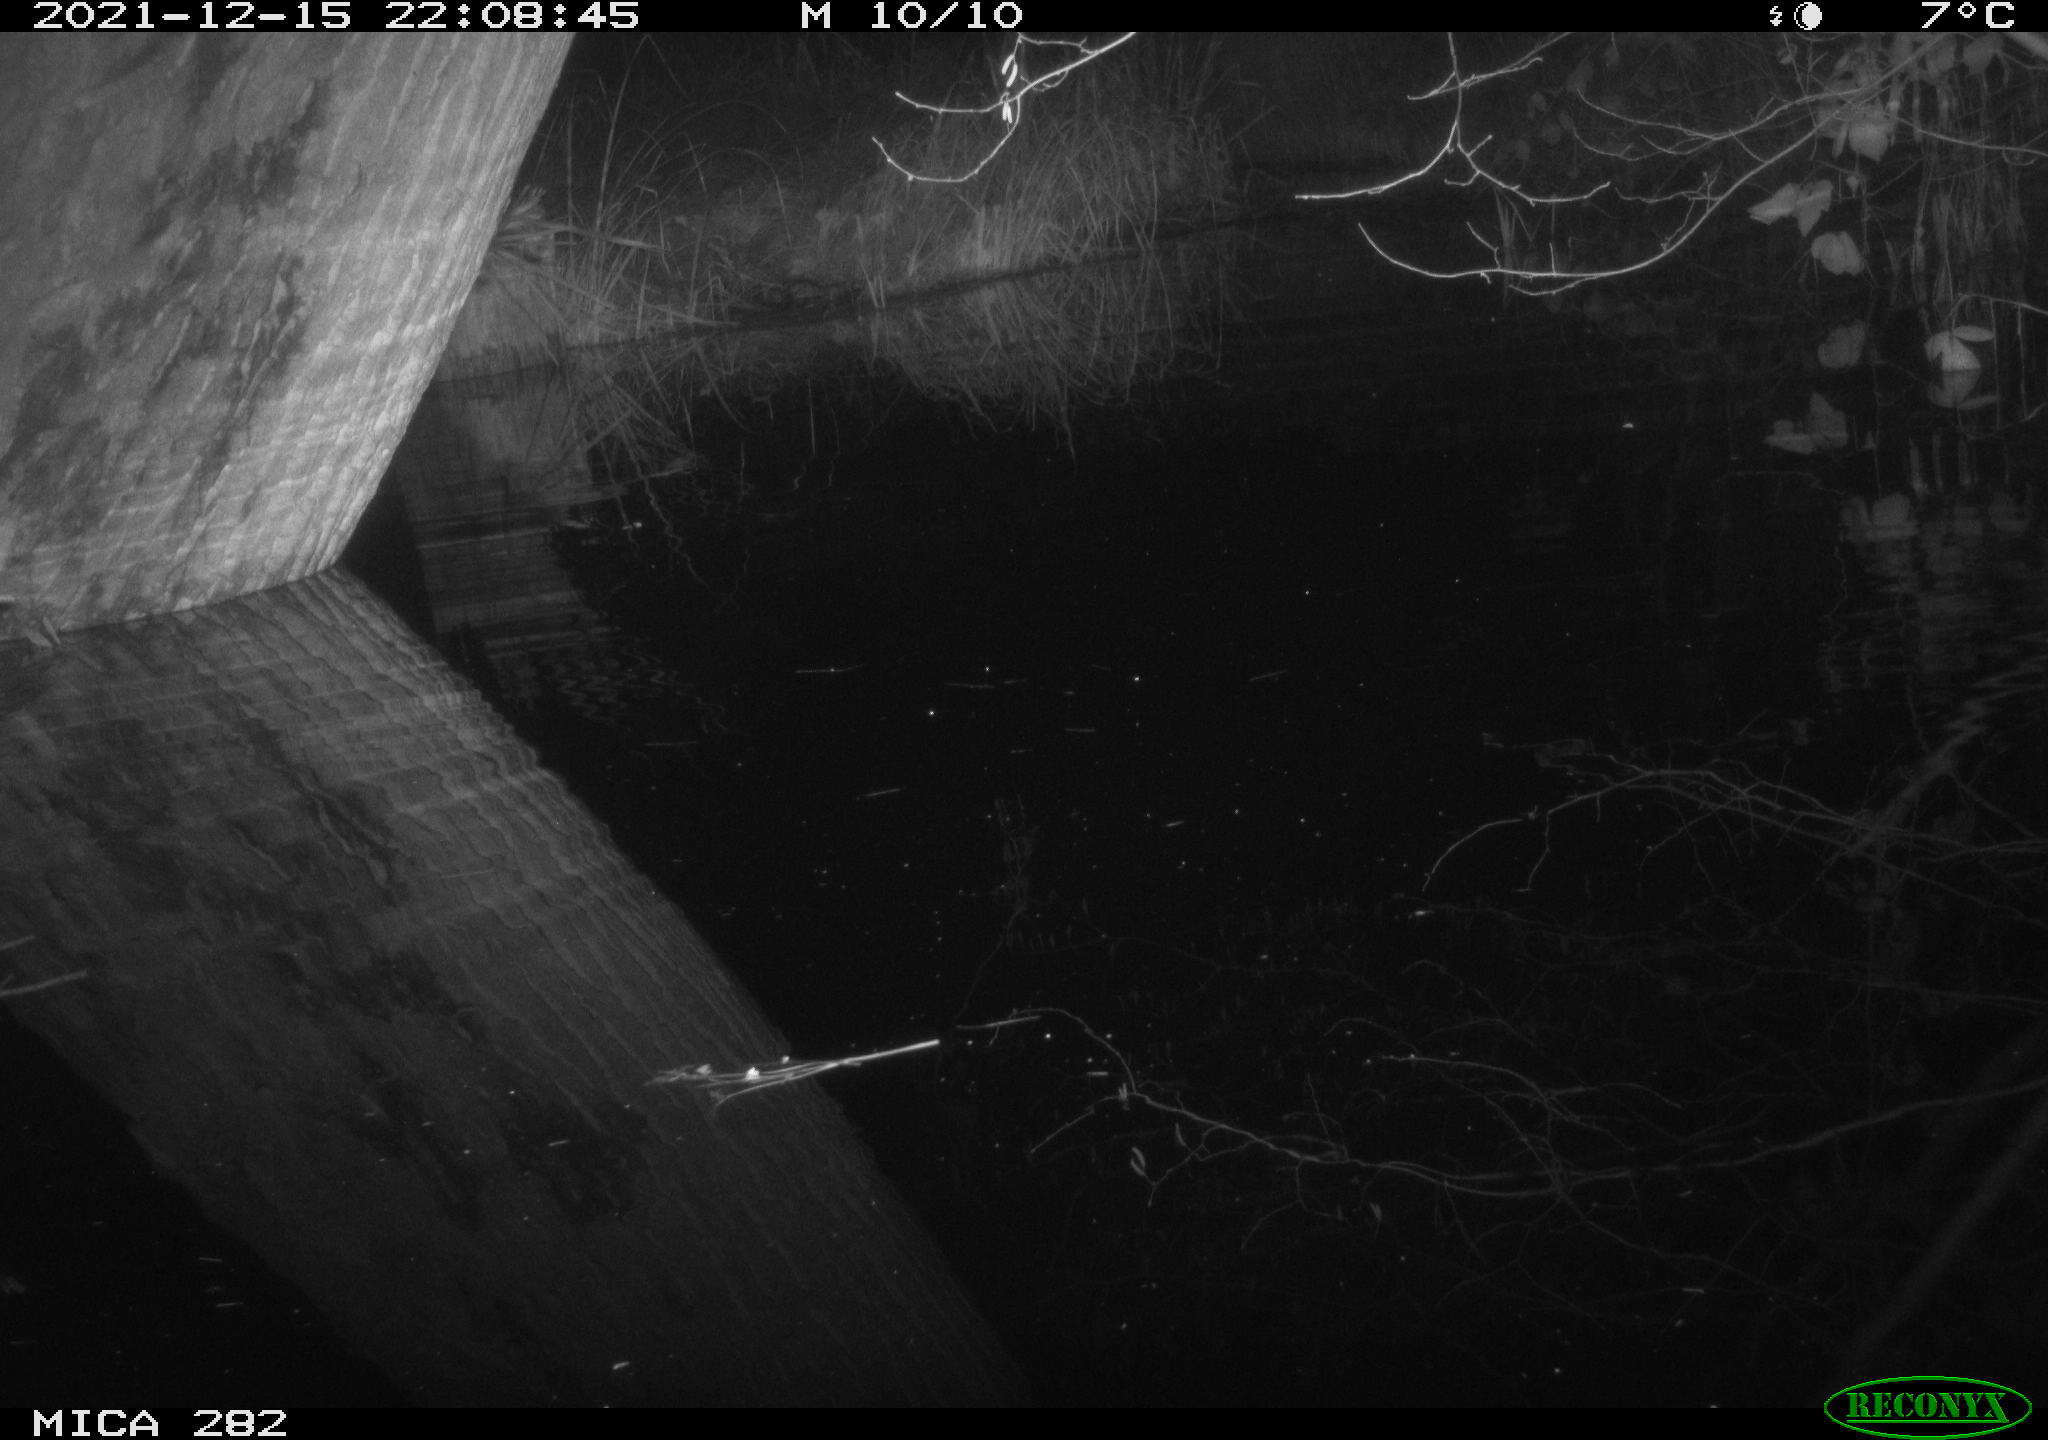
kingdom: Animalia
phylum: Chordata
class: Aves
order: Anseriformes
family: Anatidae
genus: Anas
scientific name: Anas platyrhynchos
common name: Mallard
